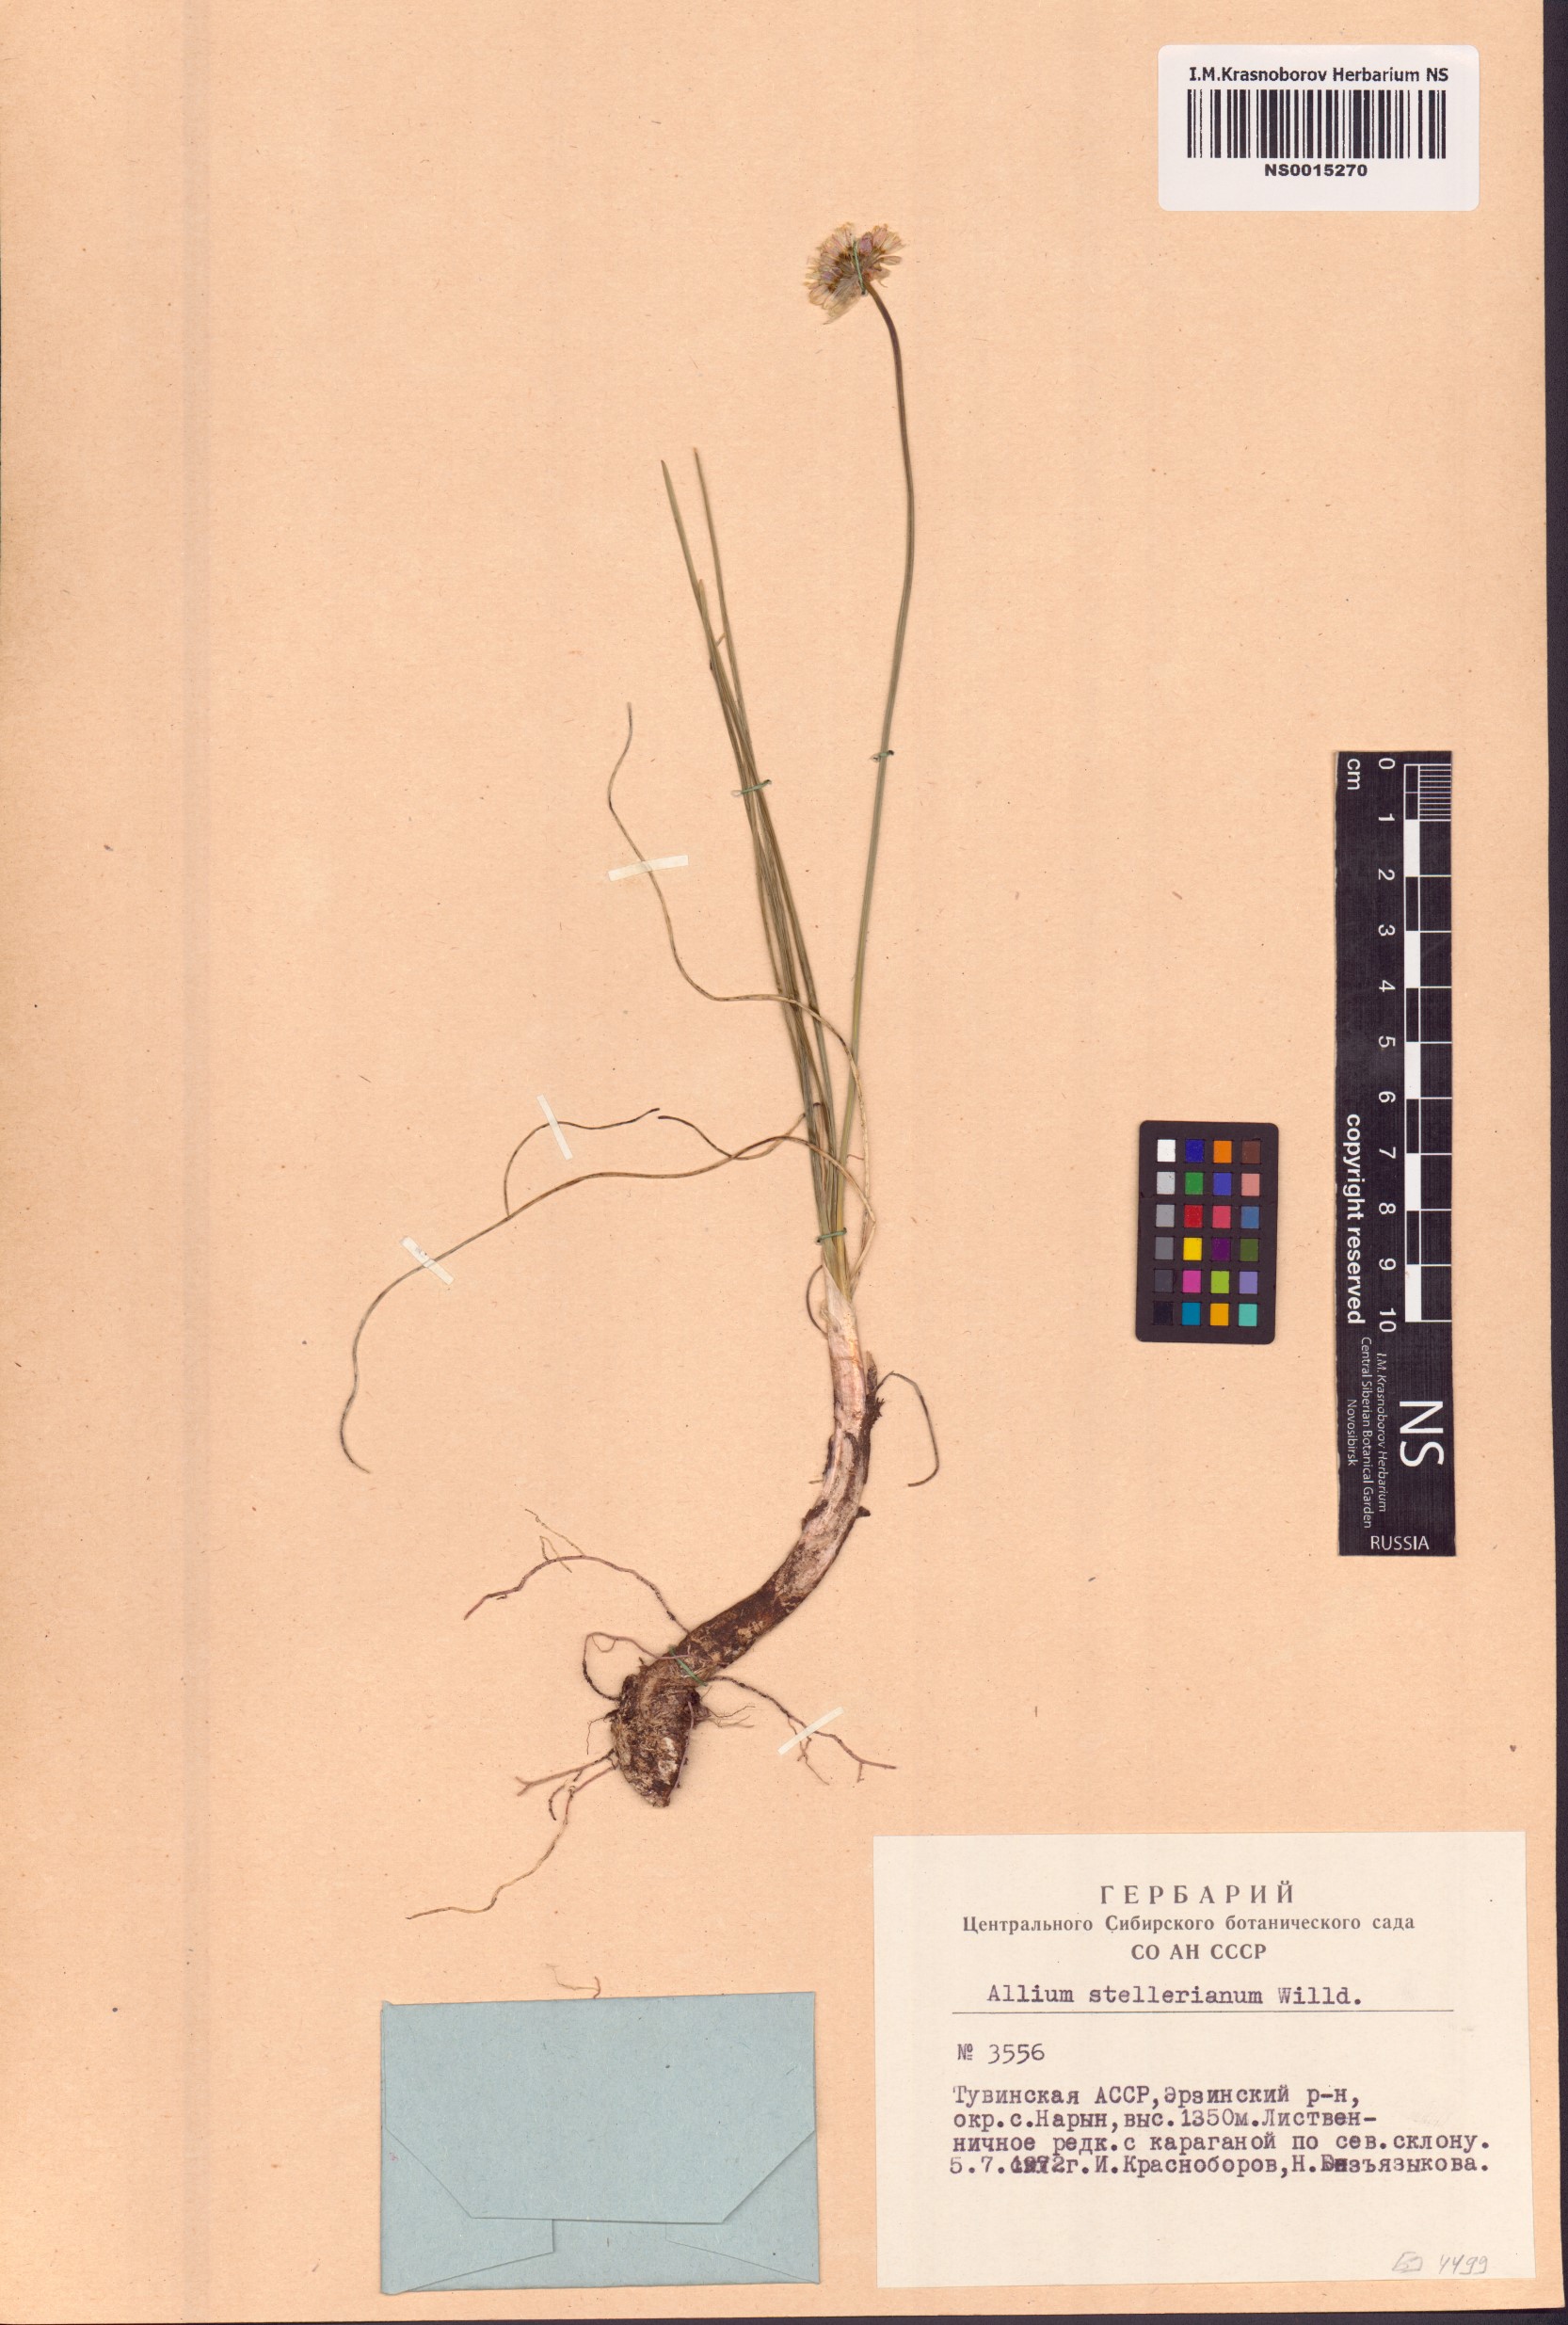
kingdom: Plantae
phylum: Tracheophyta
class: Liliopsida
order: Asparagales
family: Amaryllidaceae
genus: Allium
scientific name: Allium stellerianum
